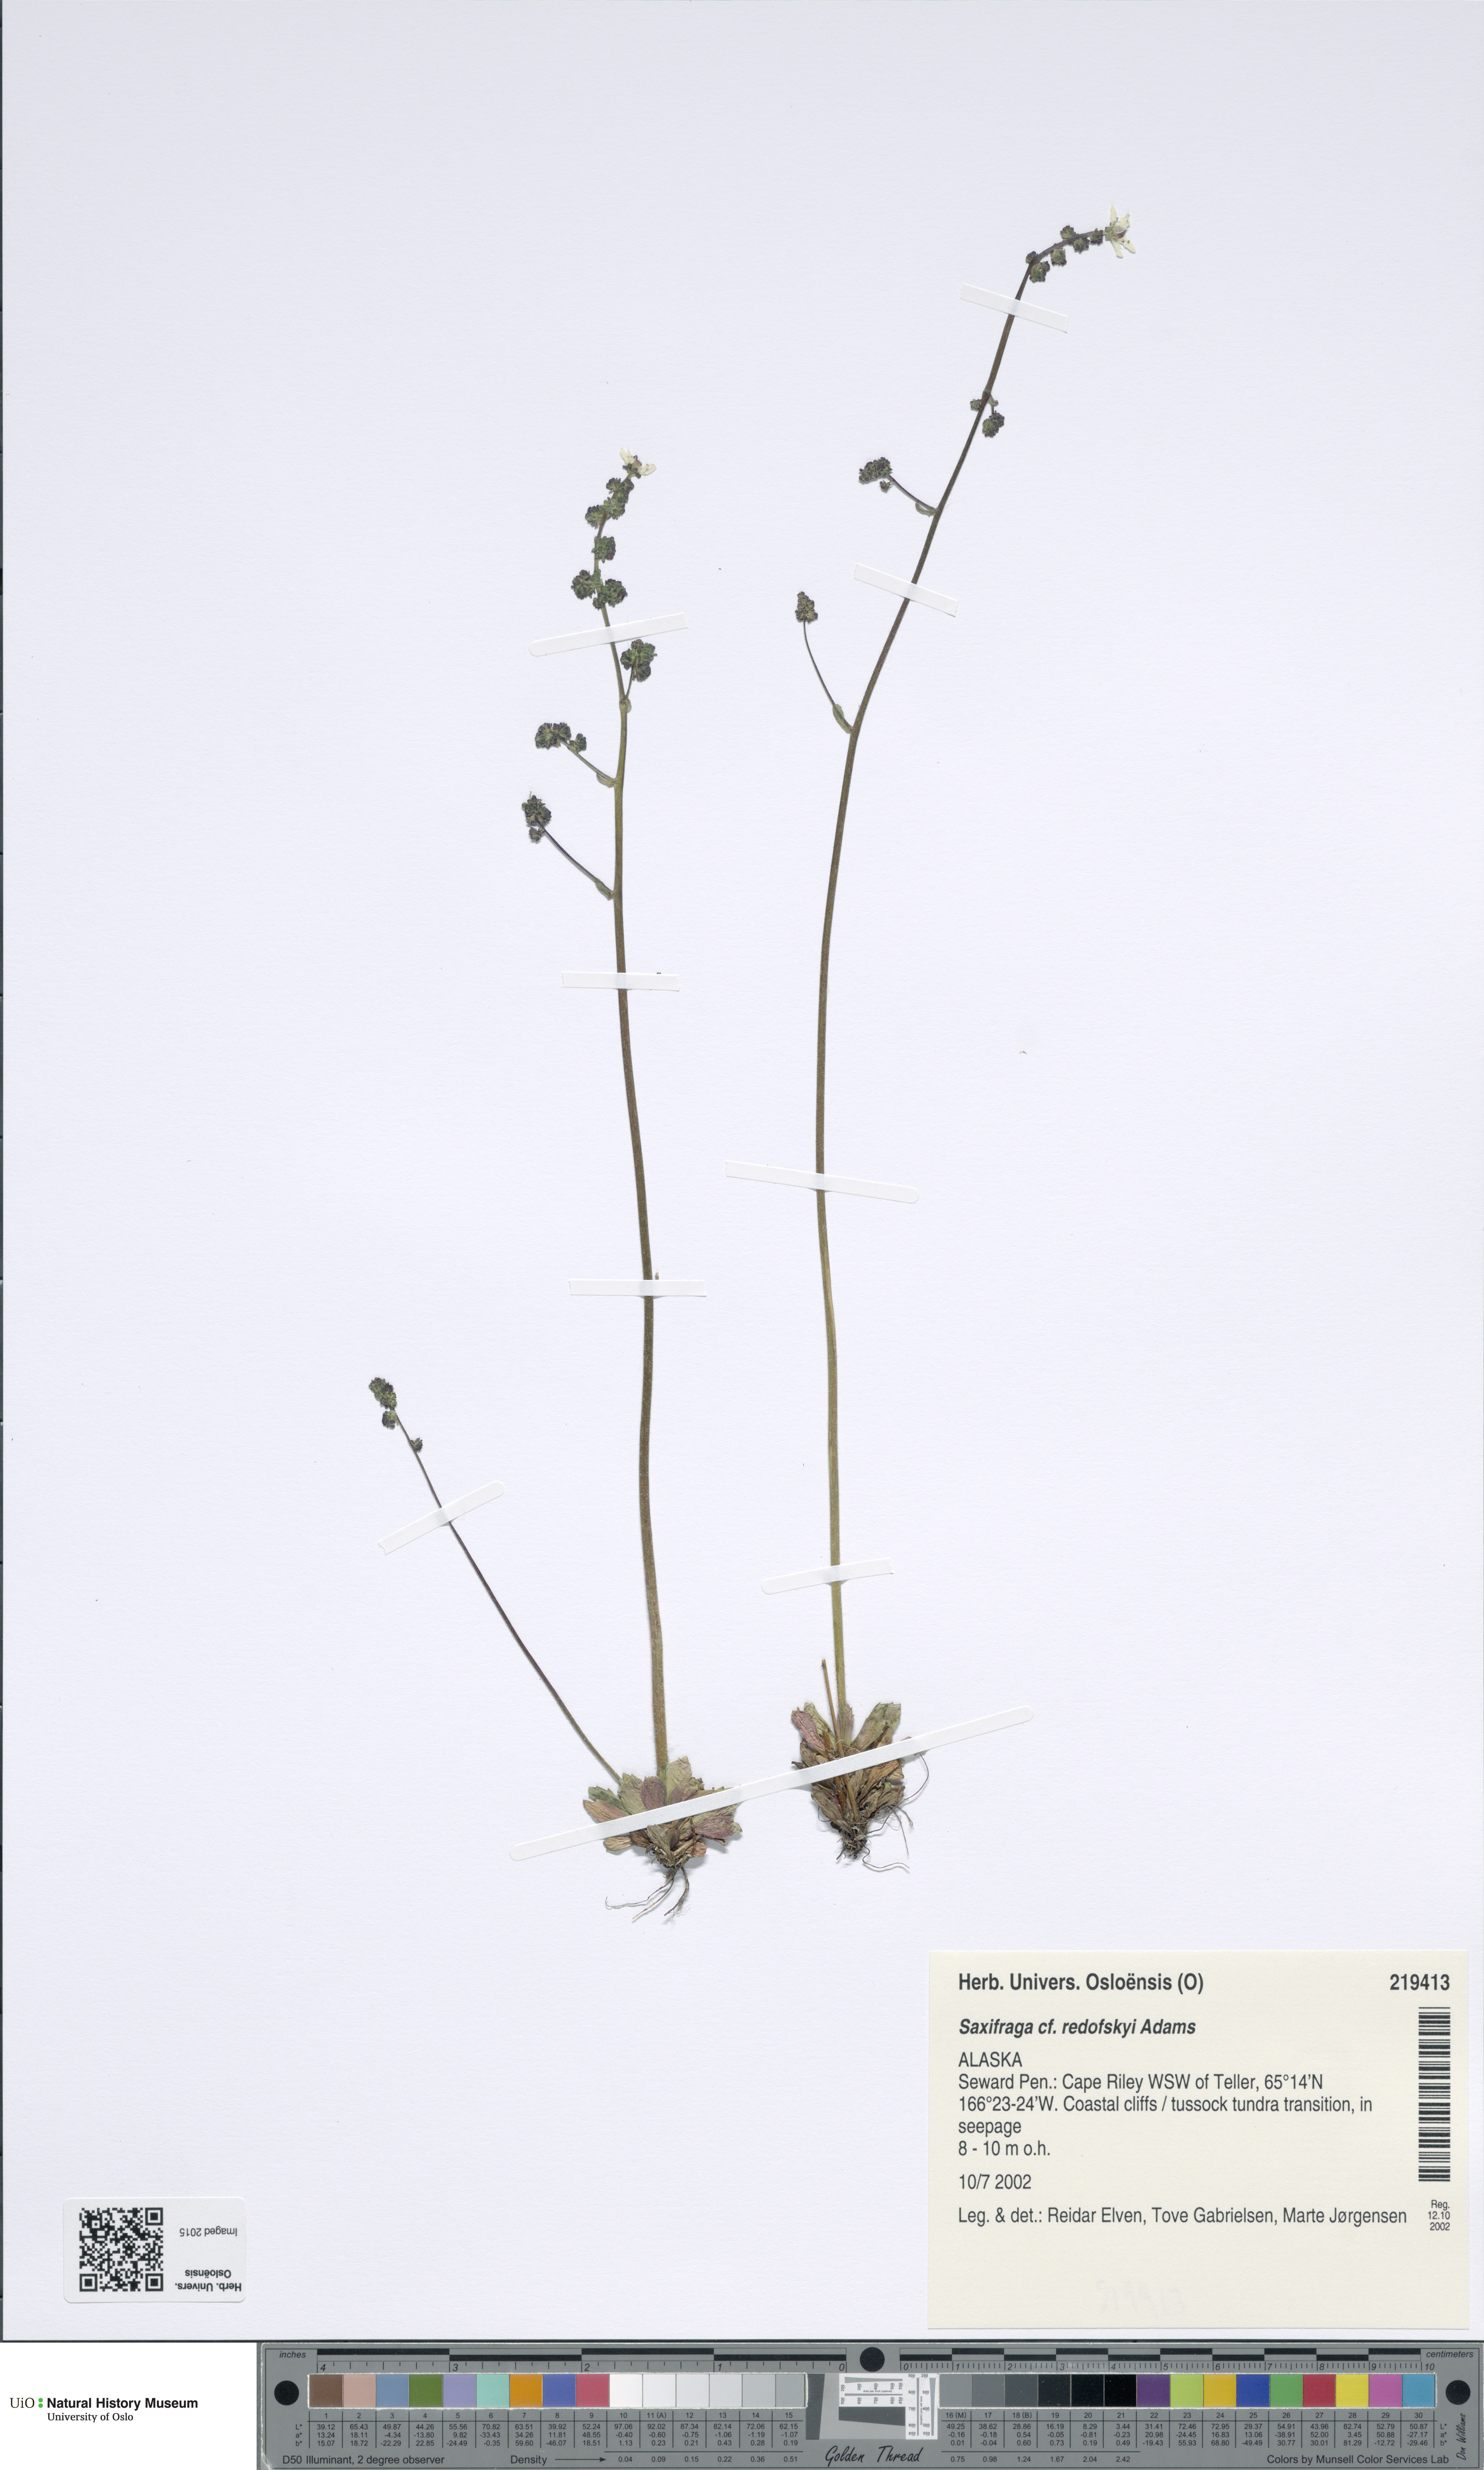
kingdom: Plantae
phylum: Tracheophyta
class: Magnoliopsida
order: Saxifragales
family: Saxifragaceae
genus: Micranthes
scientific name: Micranthes redofskyi
